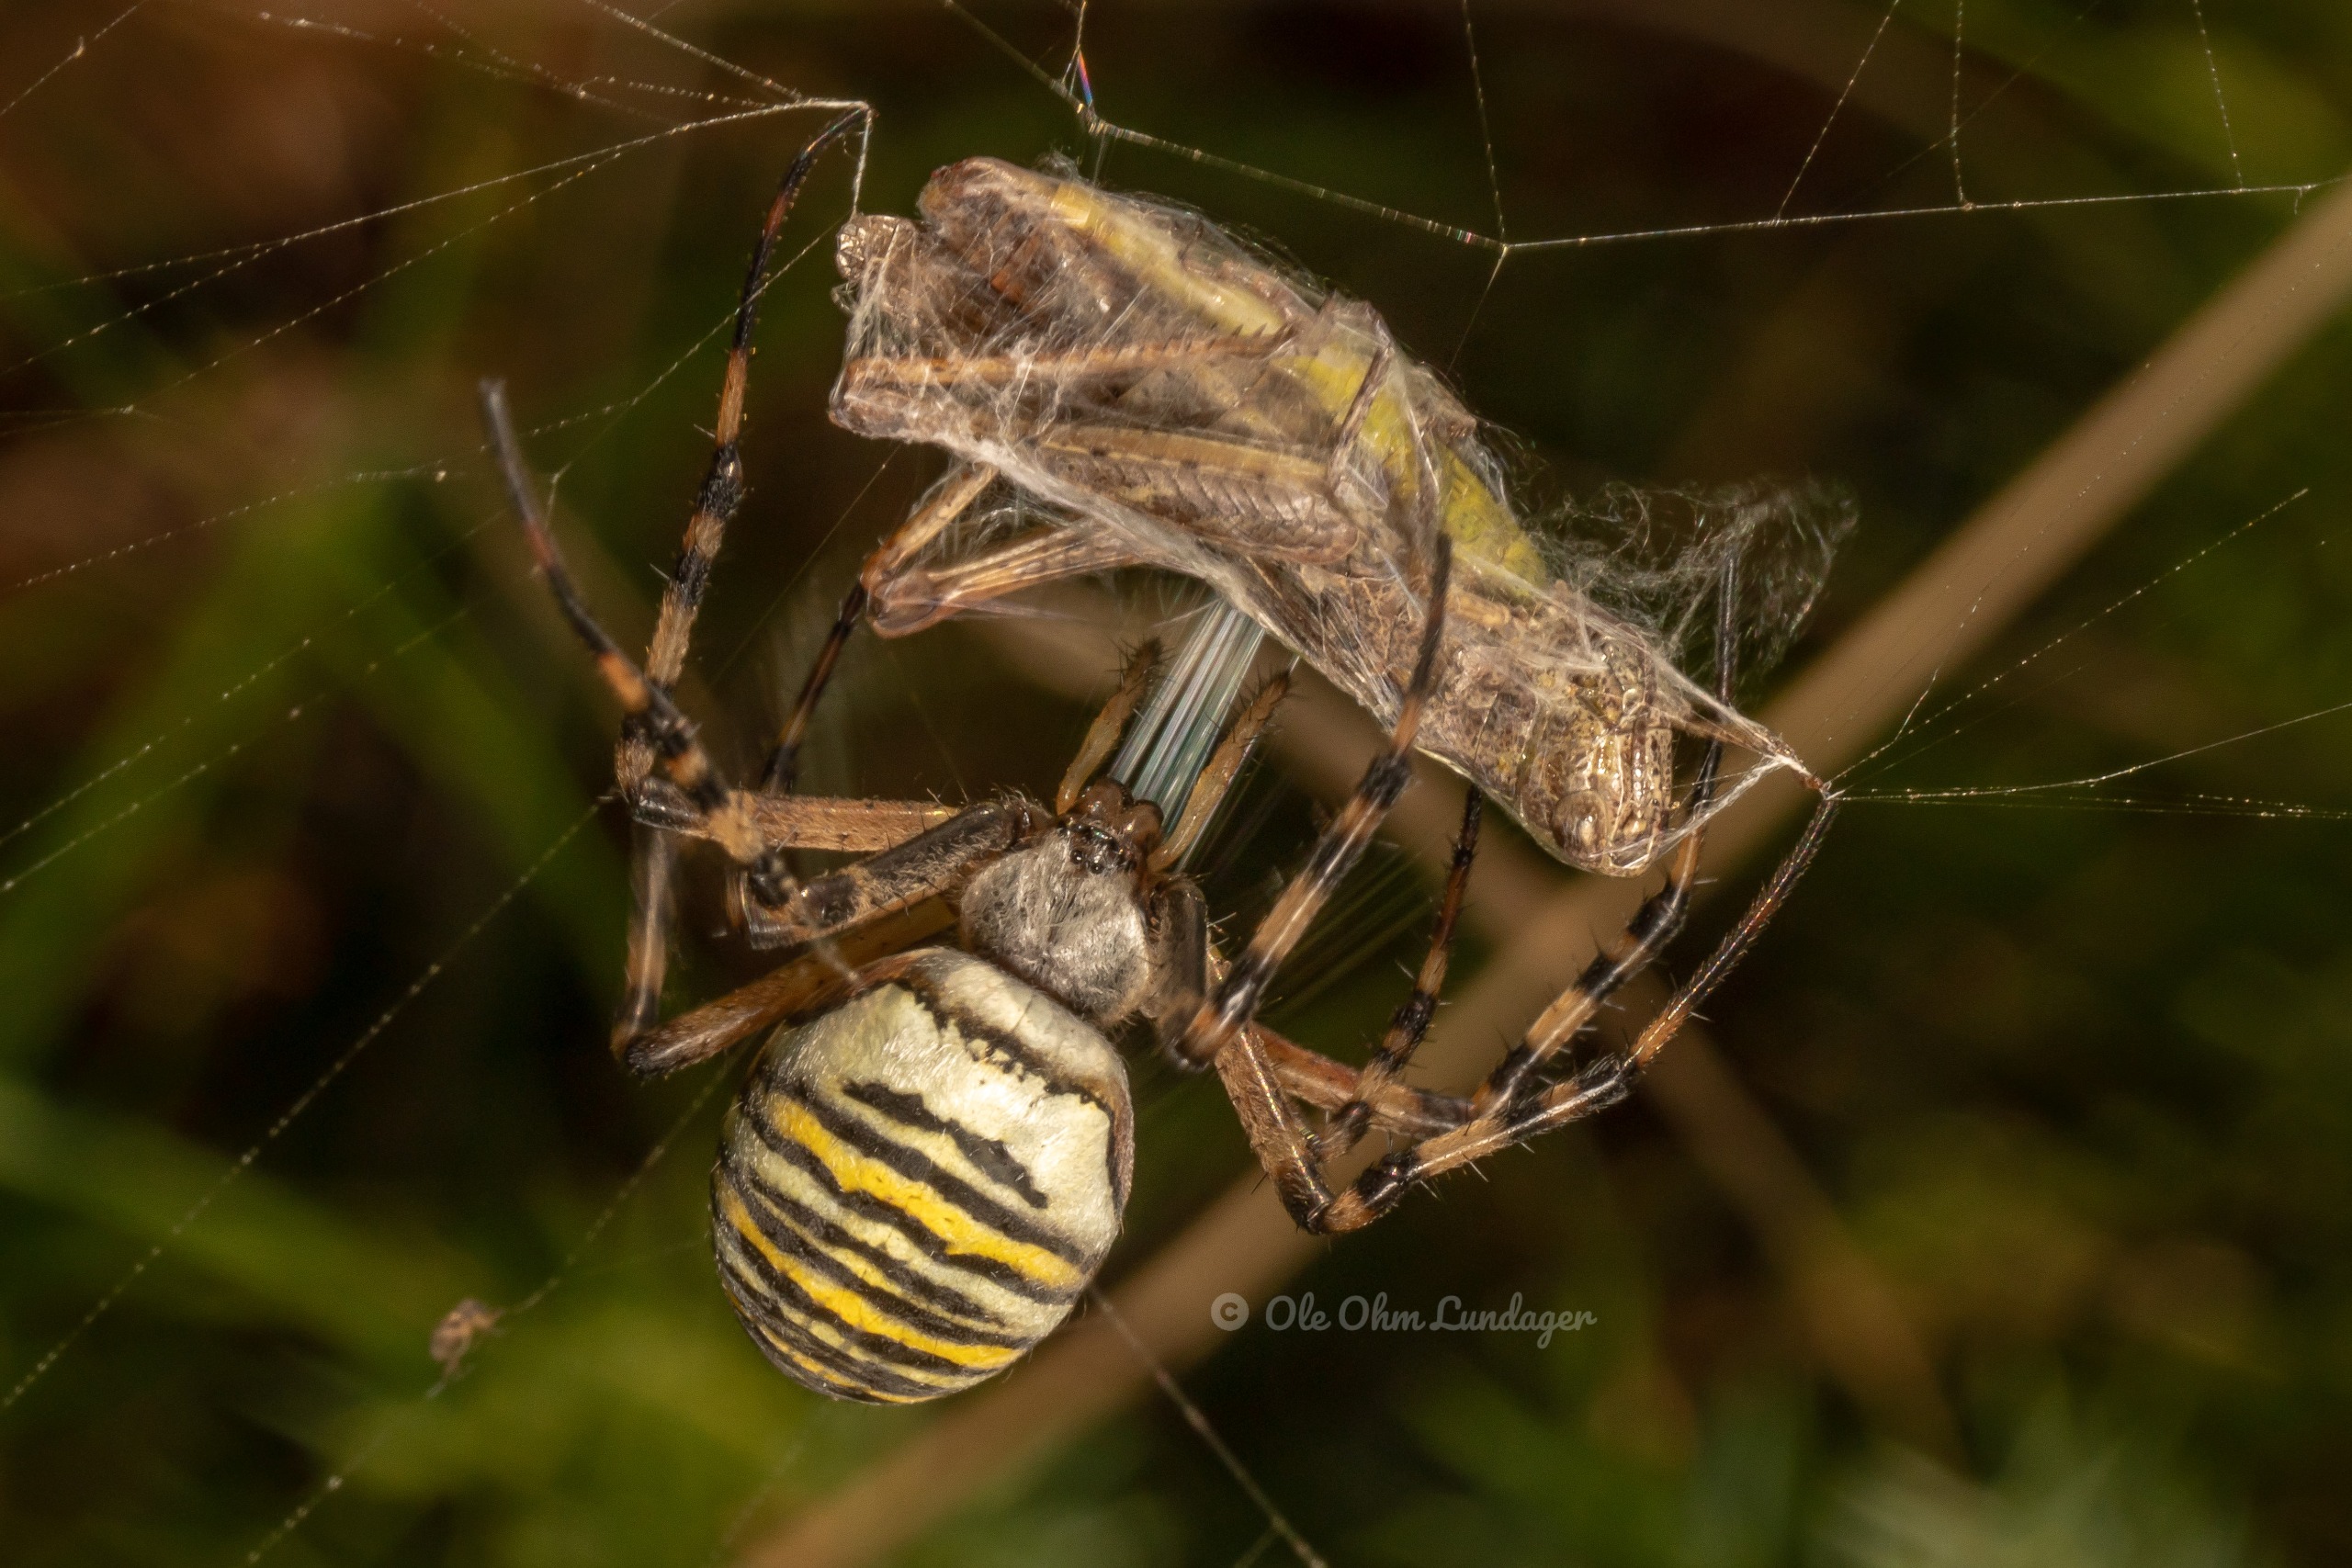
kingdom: Animalia
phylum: Arthropoda
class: Arachnida
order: Araneae
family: Araneidae
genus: Argiope
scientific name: Argiope bruennichi
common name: Hvepseedderkop
